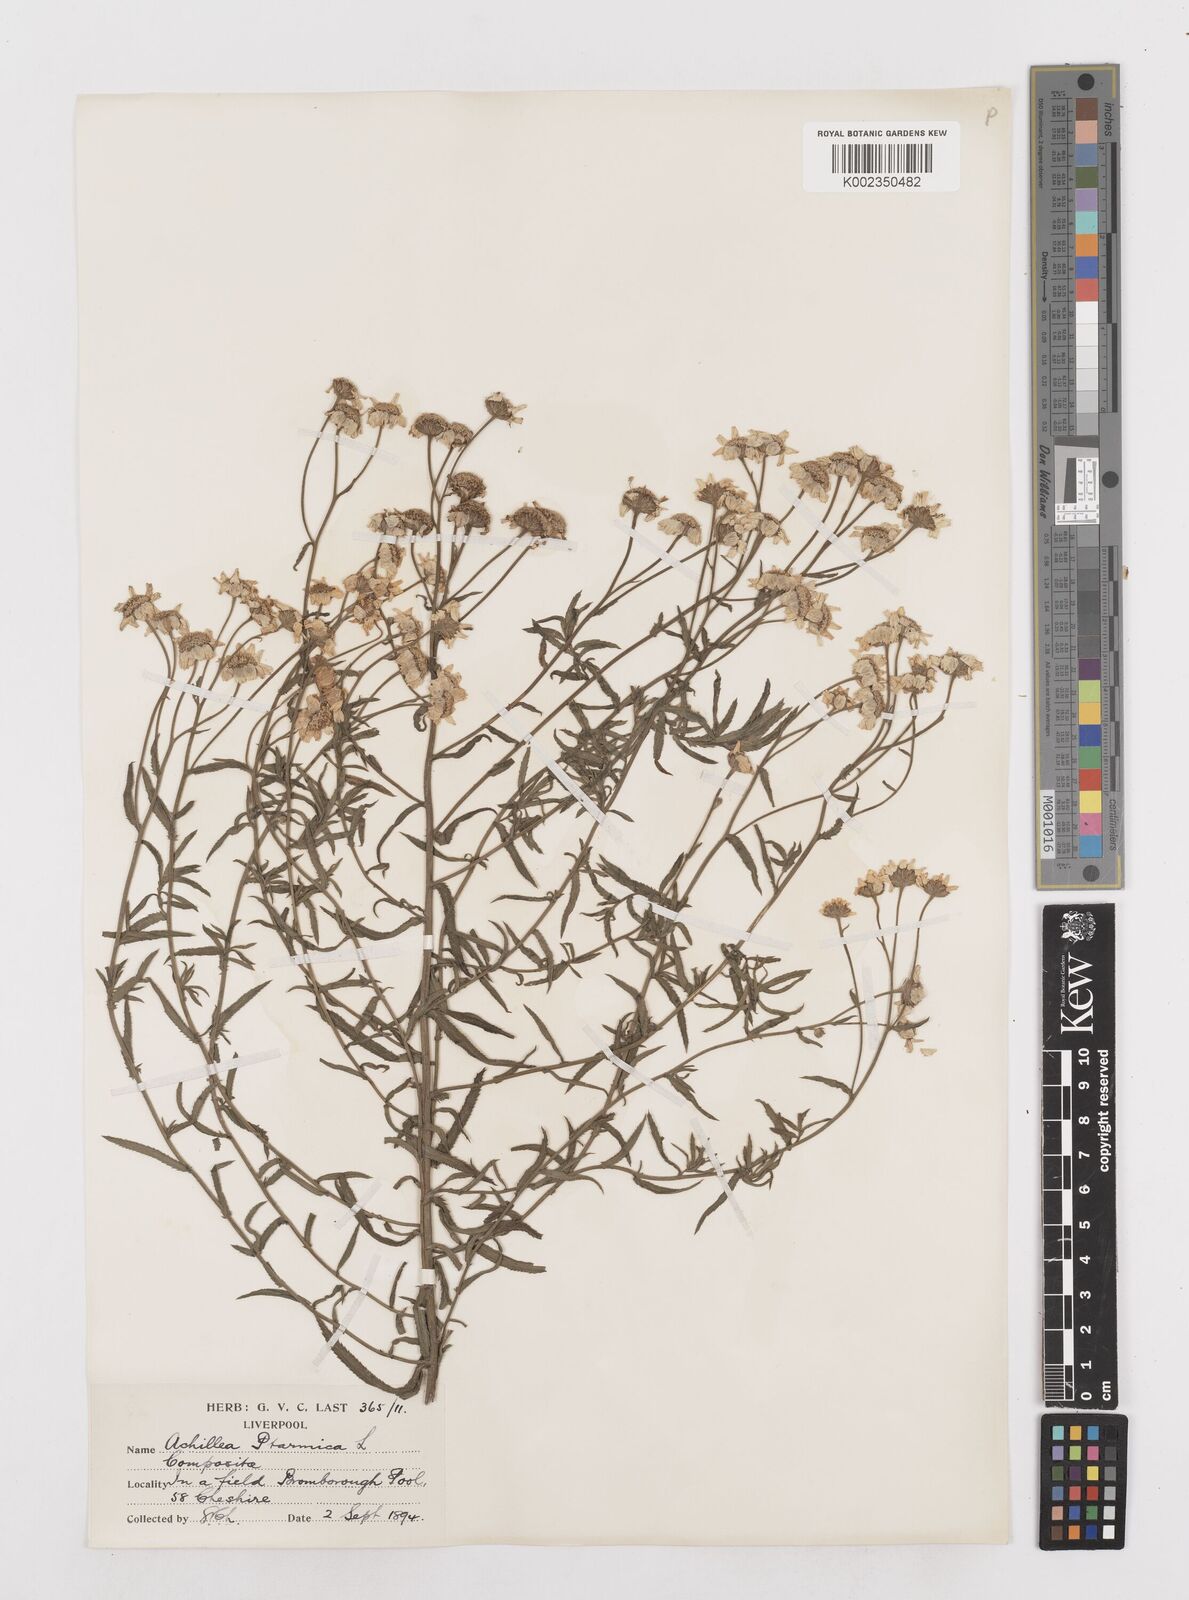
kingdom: Plantae
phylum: Tracheophyta
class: Magnoliopsida
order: Asterales
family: Asteraceae
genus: Achillea
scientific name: Achillea ptarmica
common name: Sneezeweed
